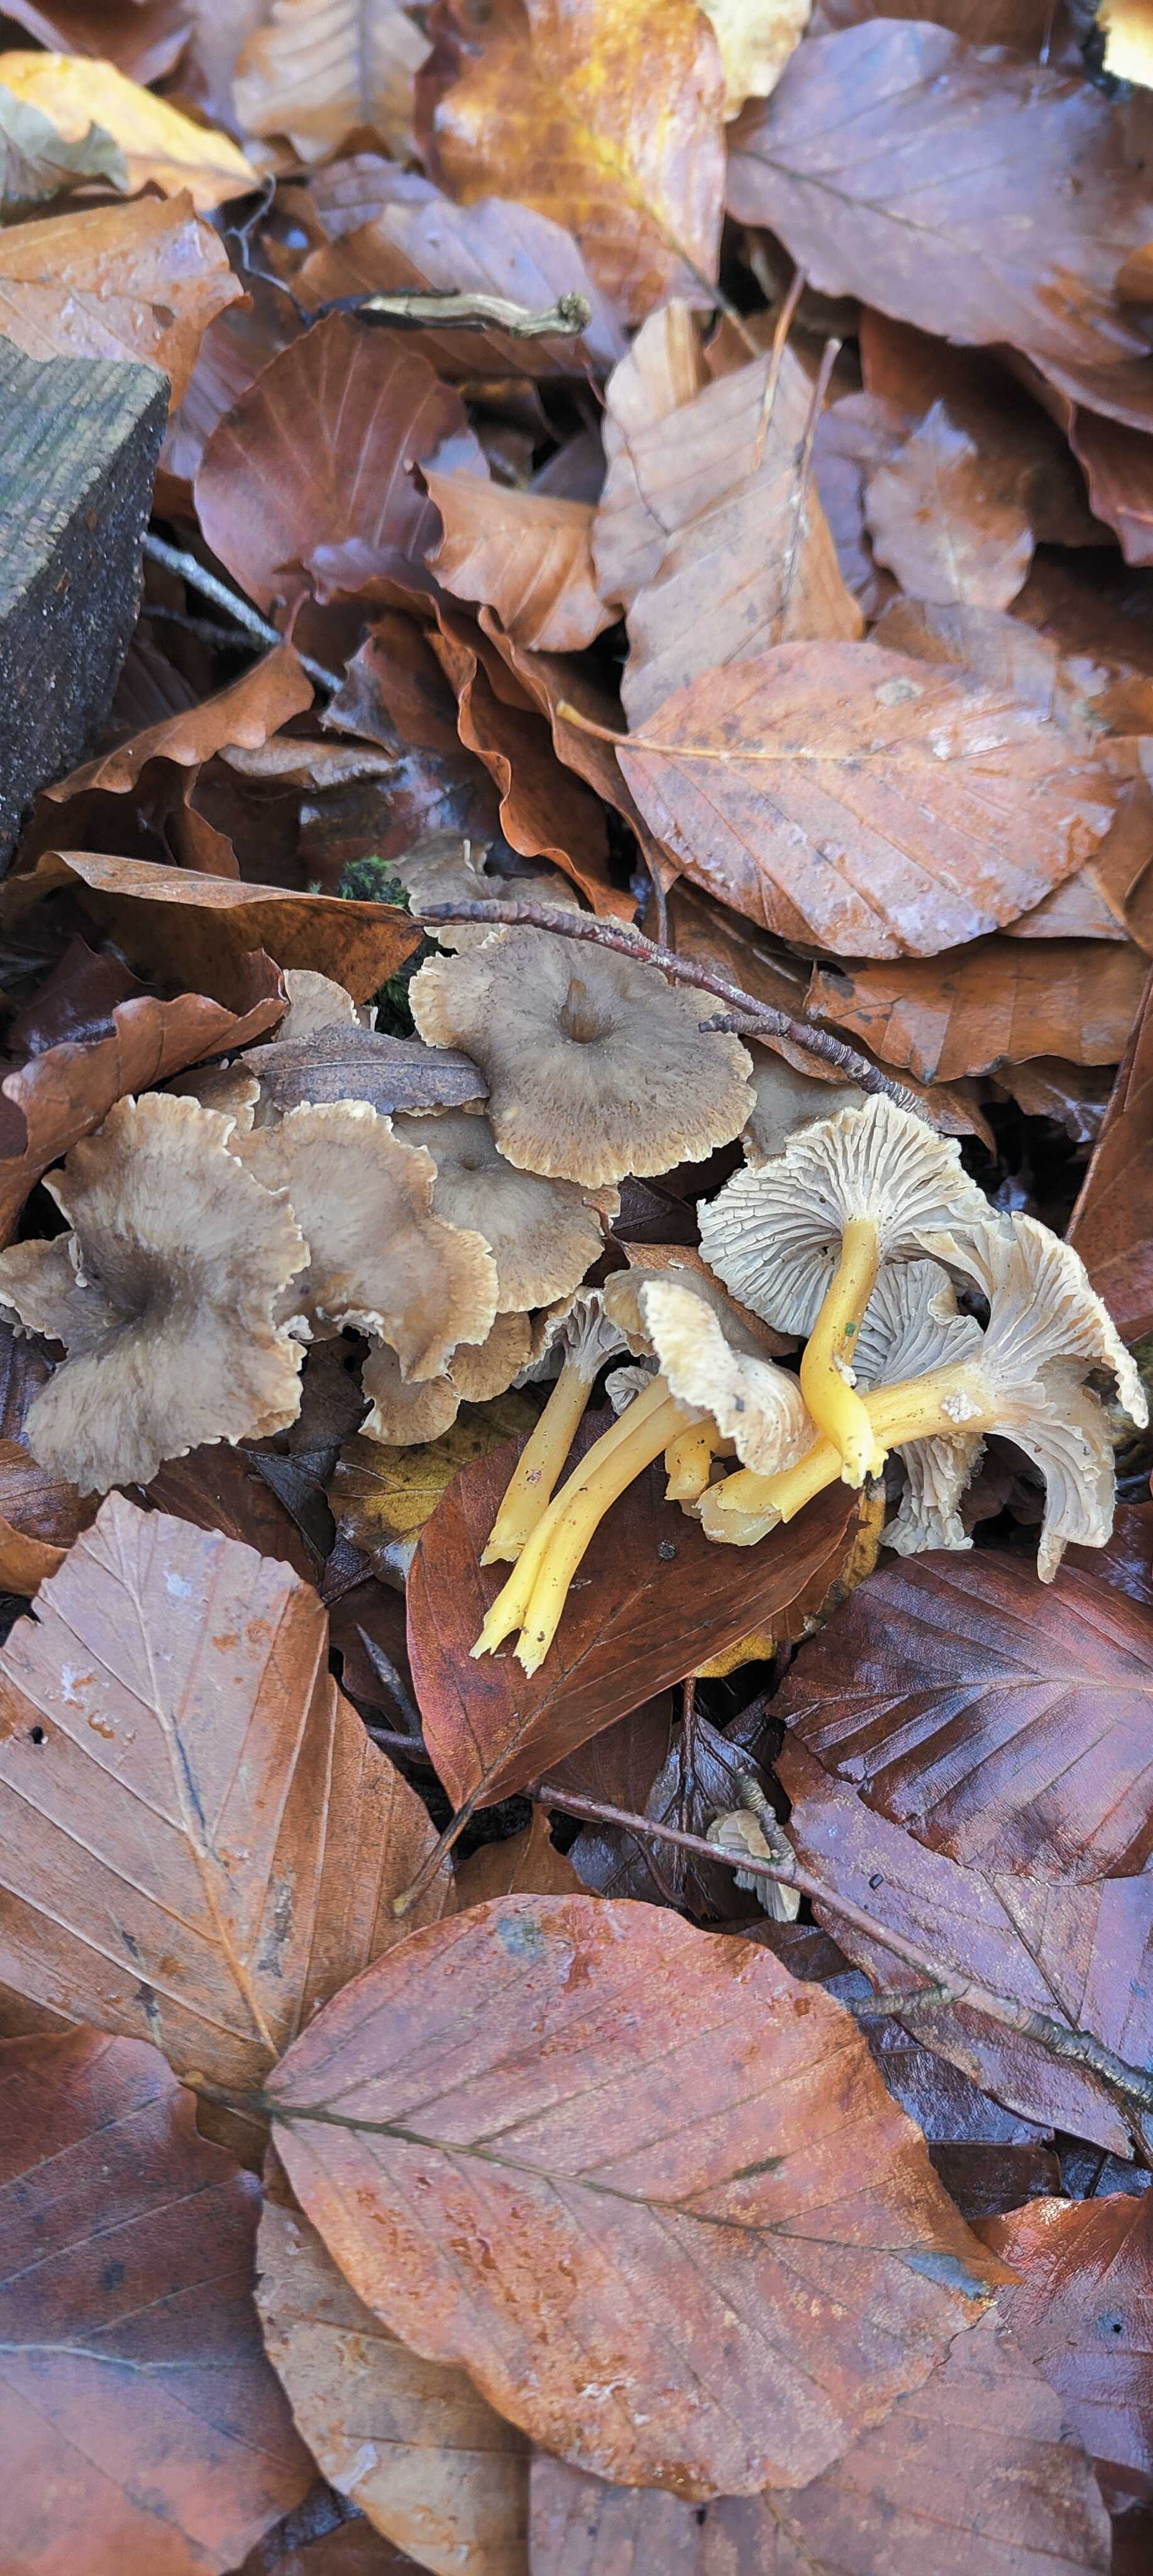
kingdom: Fungi
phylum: Basidiomycota
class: Agaricomycetes
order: Cantharellales
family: Hydnaceae
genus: Craterellus
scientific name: Craterellus tubaeformis
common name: tragt-kantarel
